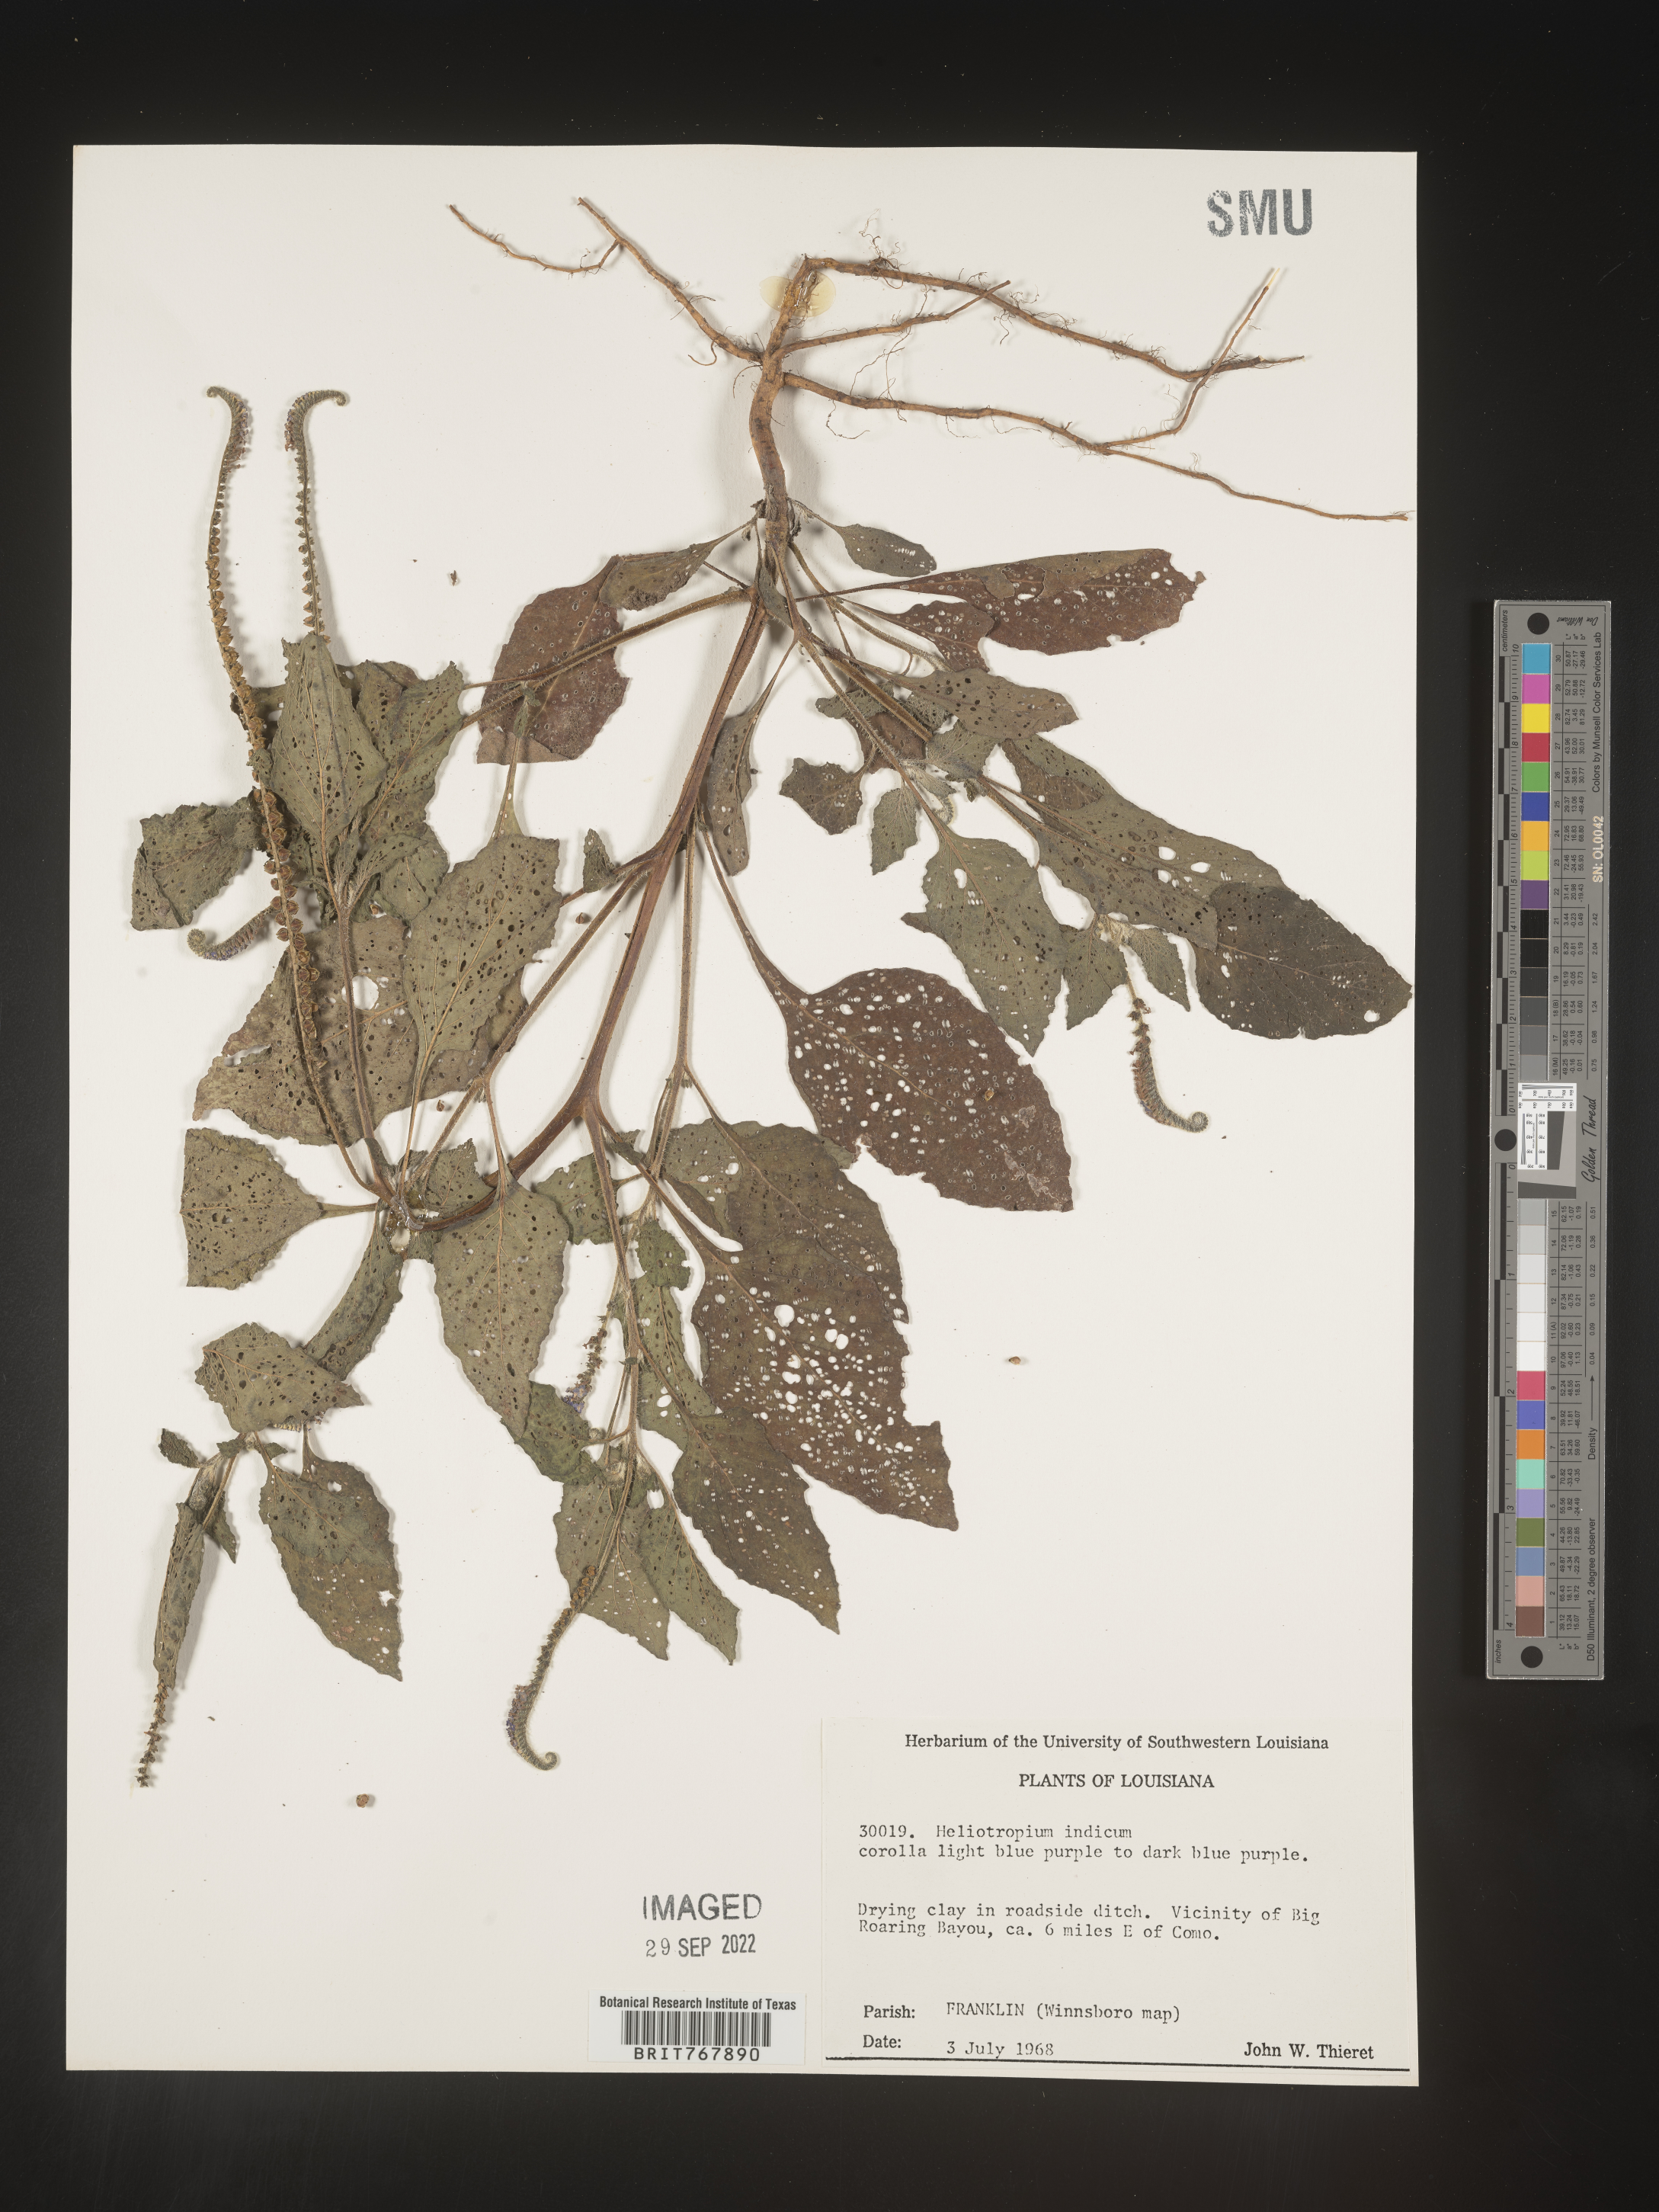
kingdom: Plantae
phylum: Tracheophyta
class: Magnoliopsida
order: Boraginales
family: Heliotropiaceae
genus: Heliotropium
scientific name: Heliotropium indicum
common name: Indian heliotrope
